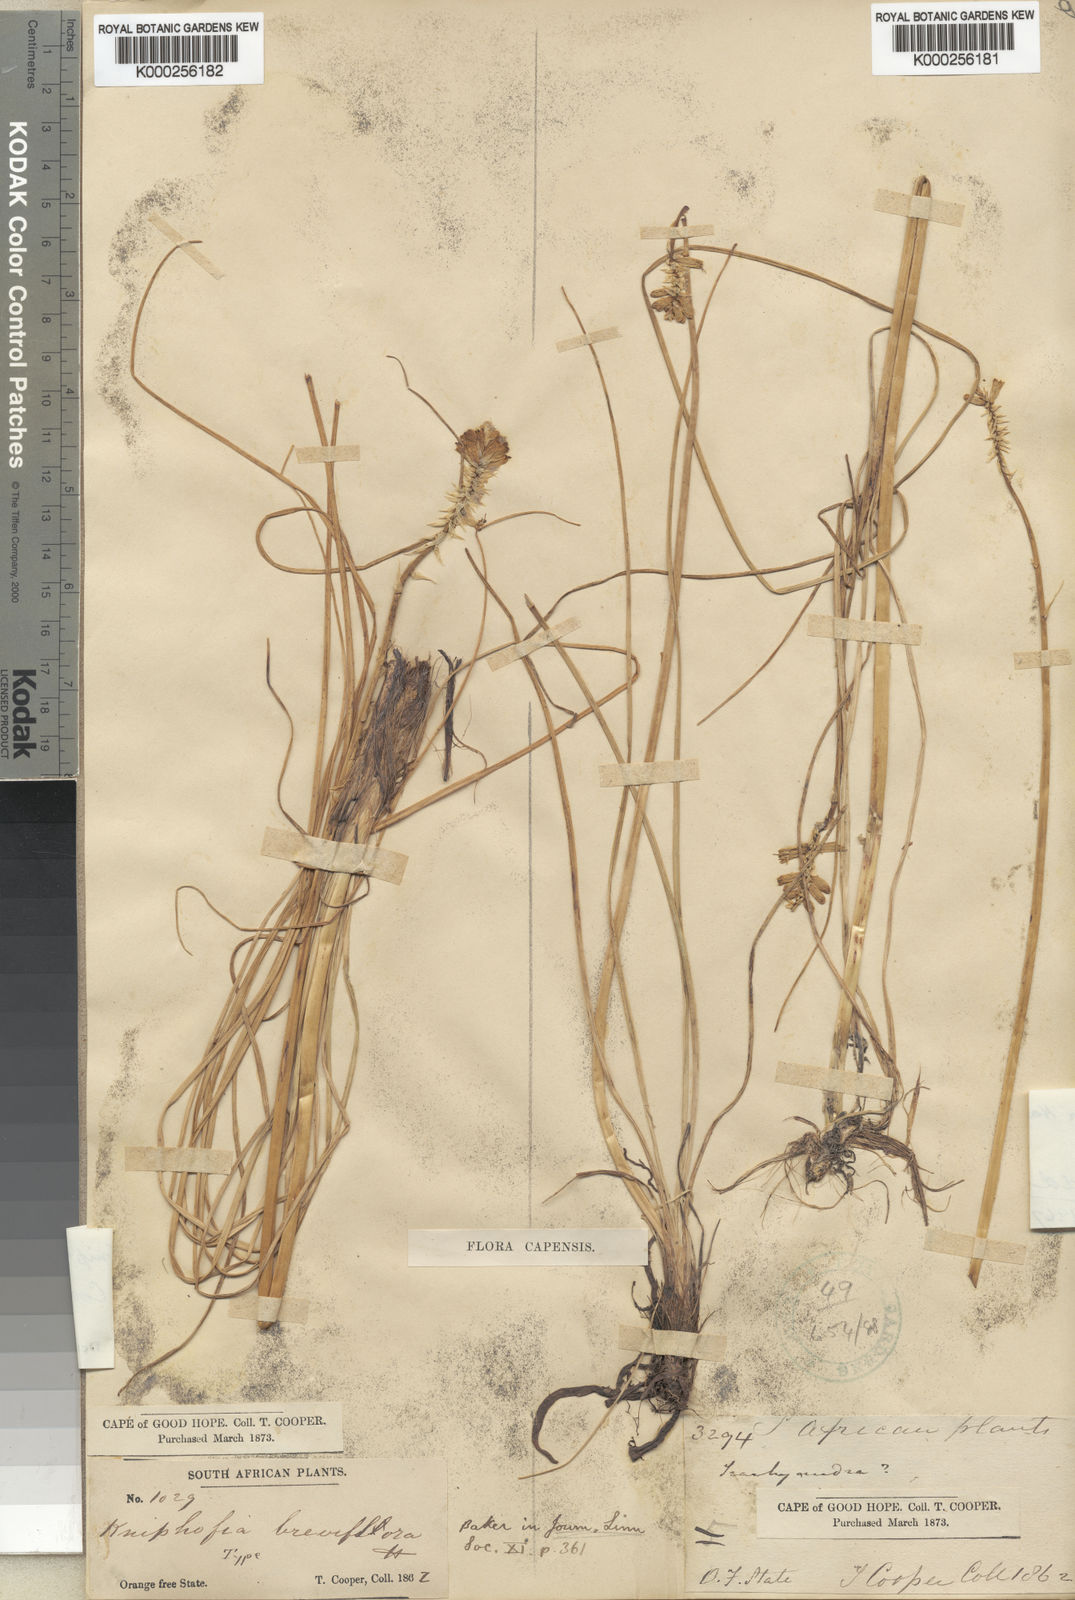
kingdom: Plantae
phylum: Tracheophyta
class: Liliopsida
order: Asparagales
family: Asphodelaceae
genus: Kniphofia
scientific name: Kniphofia breviflora
